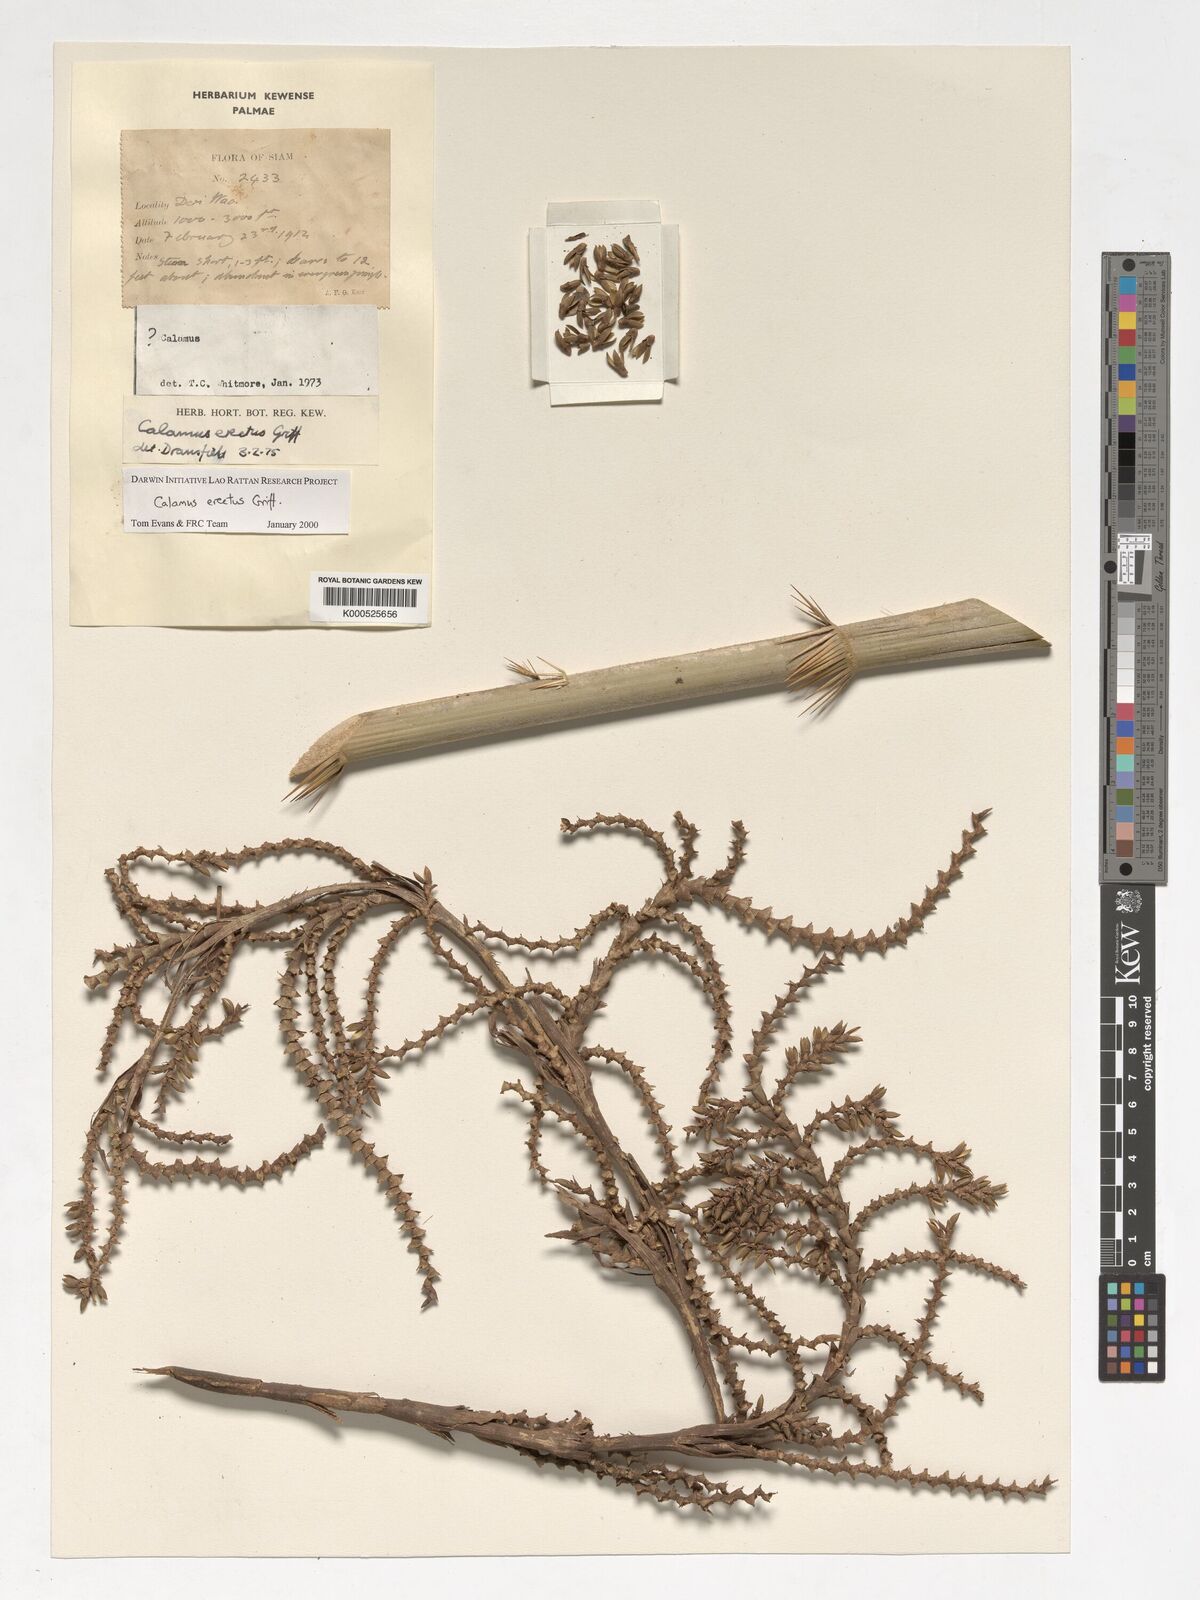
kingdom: Plantae
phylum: Tracheophyta
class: Liliopsida
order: Arecales
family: Arecaceae
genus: Calamus
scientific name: Calamus erectus
